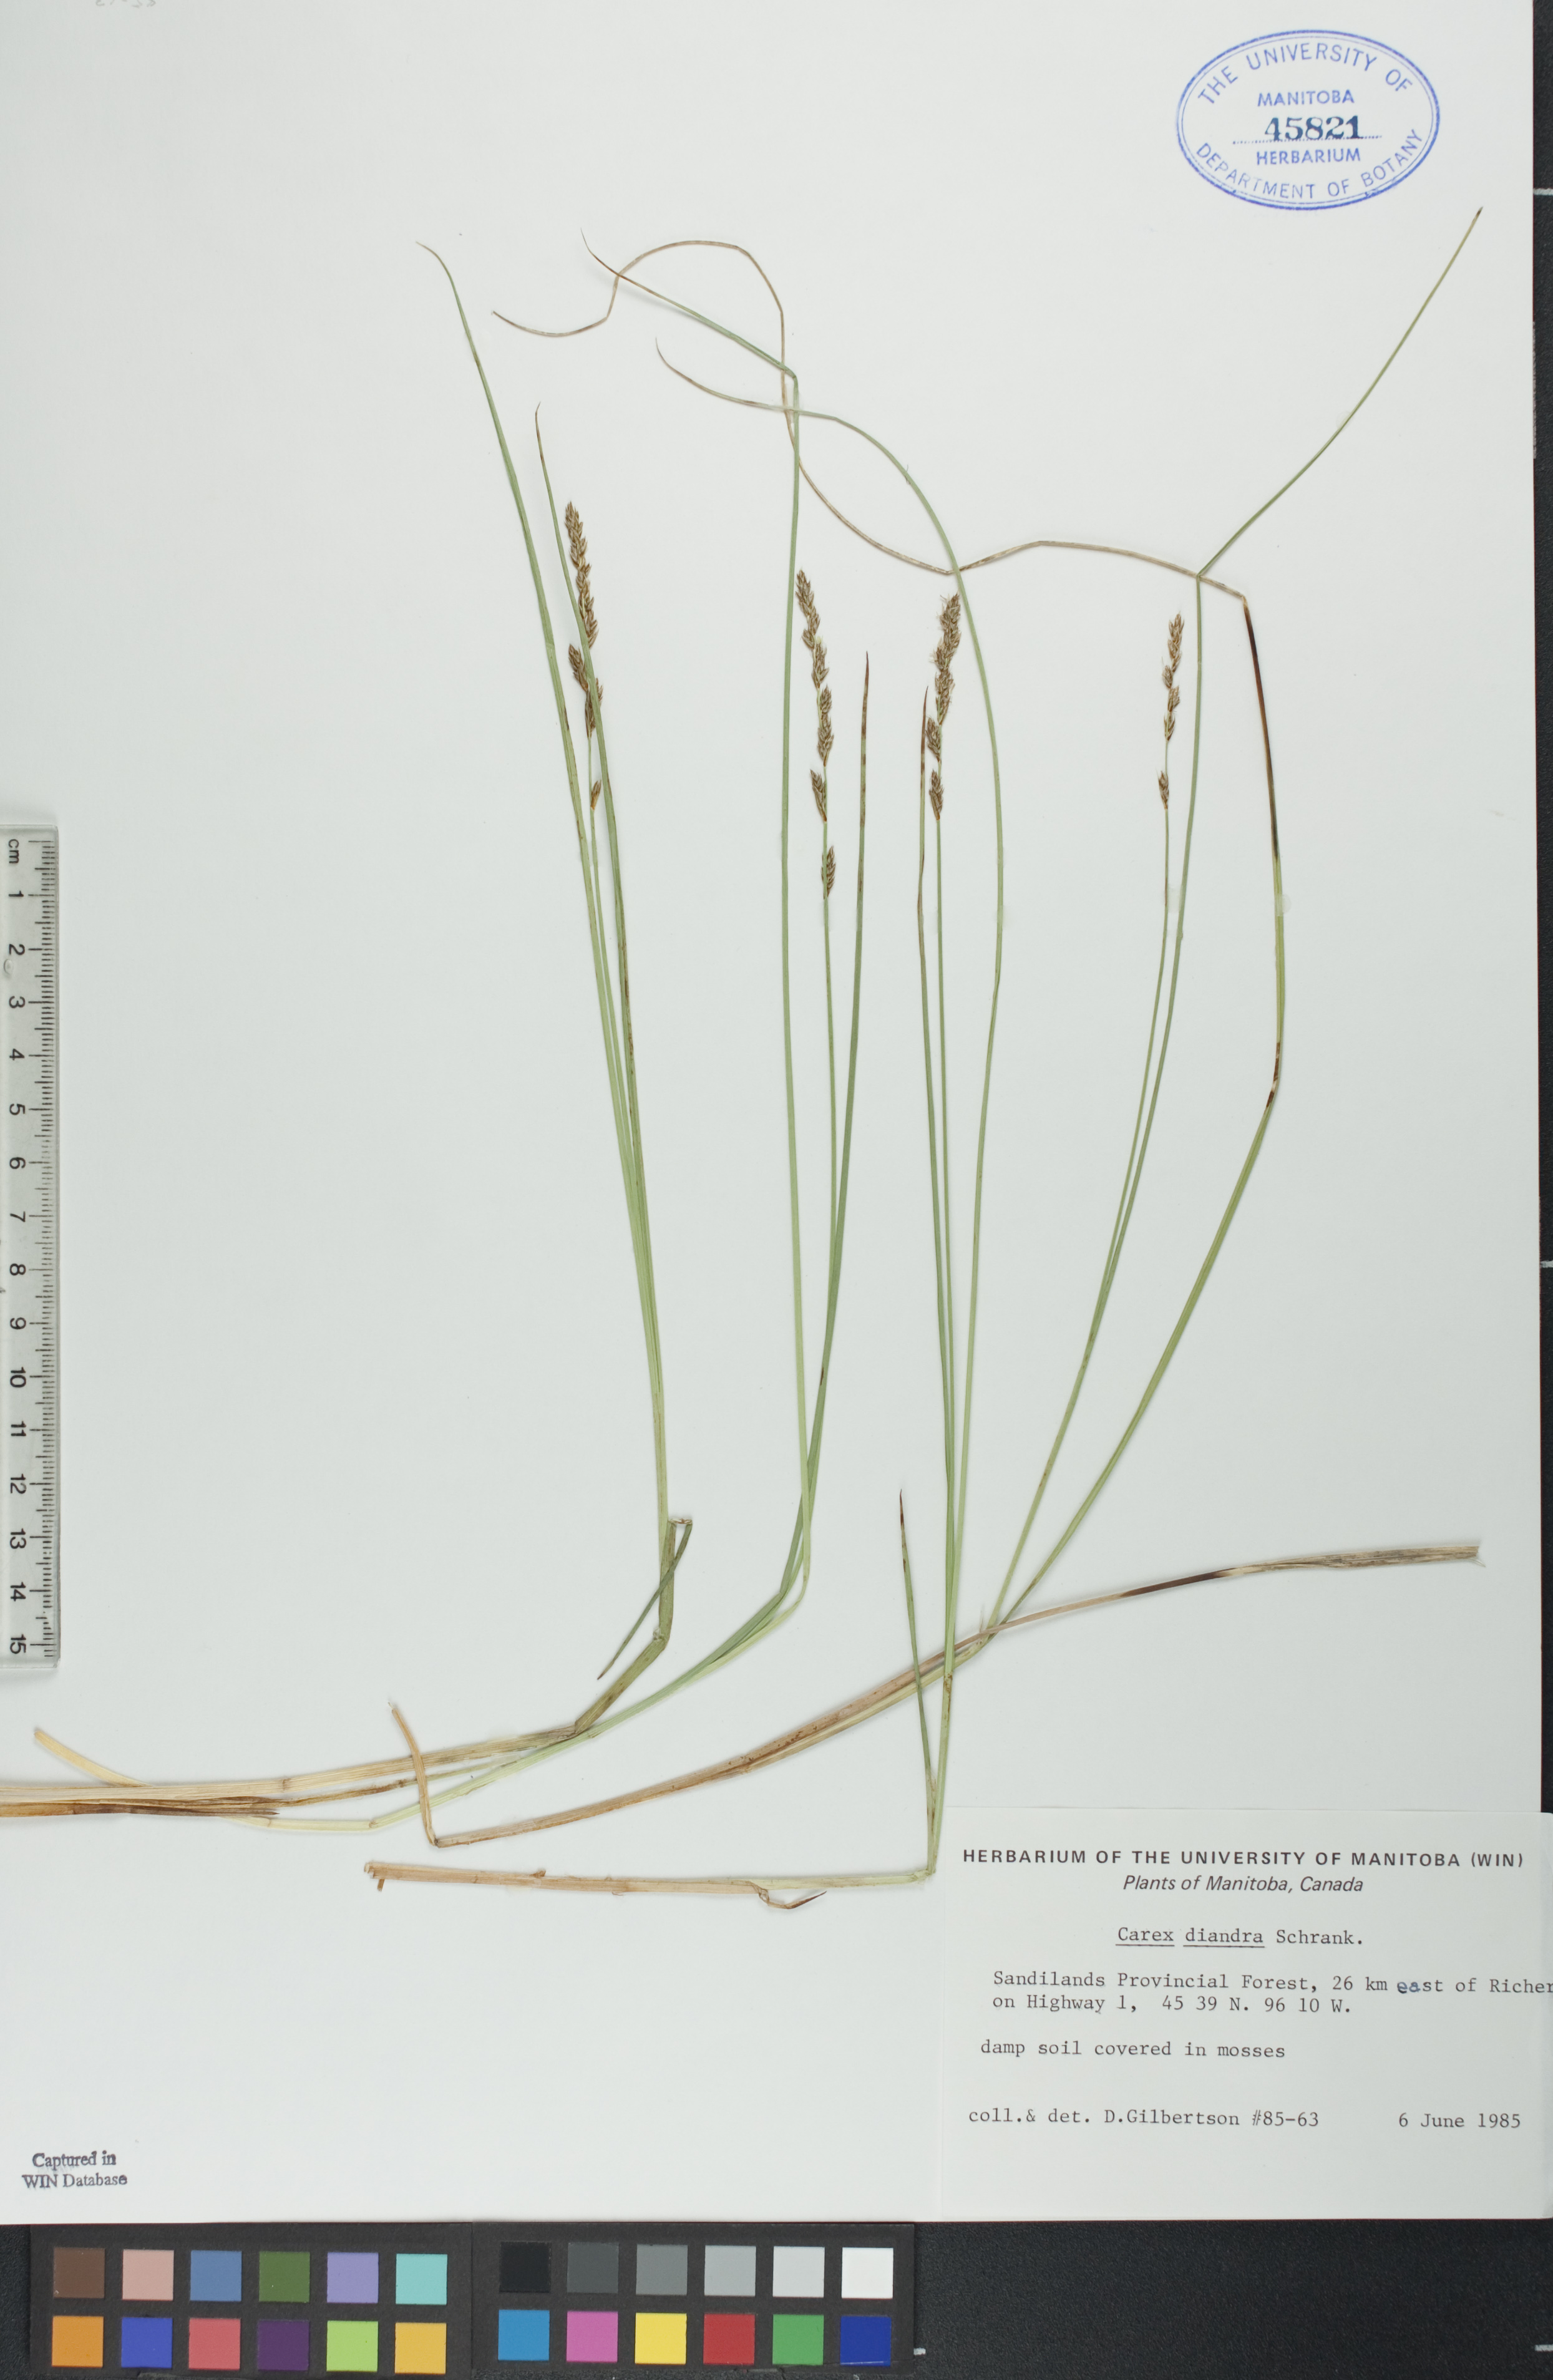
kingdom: Plantae
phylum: Tracheophyta
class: Liliopsida
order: Poales
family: Cyperaceae
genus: Carex
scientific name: Carex diandra
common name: Lesser tussock-sedge
